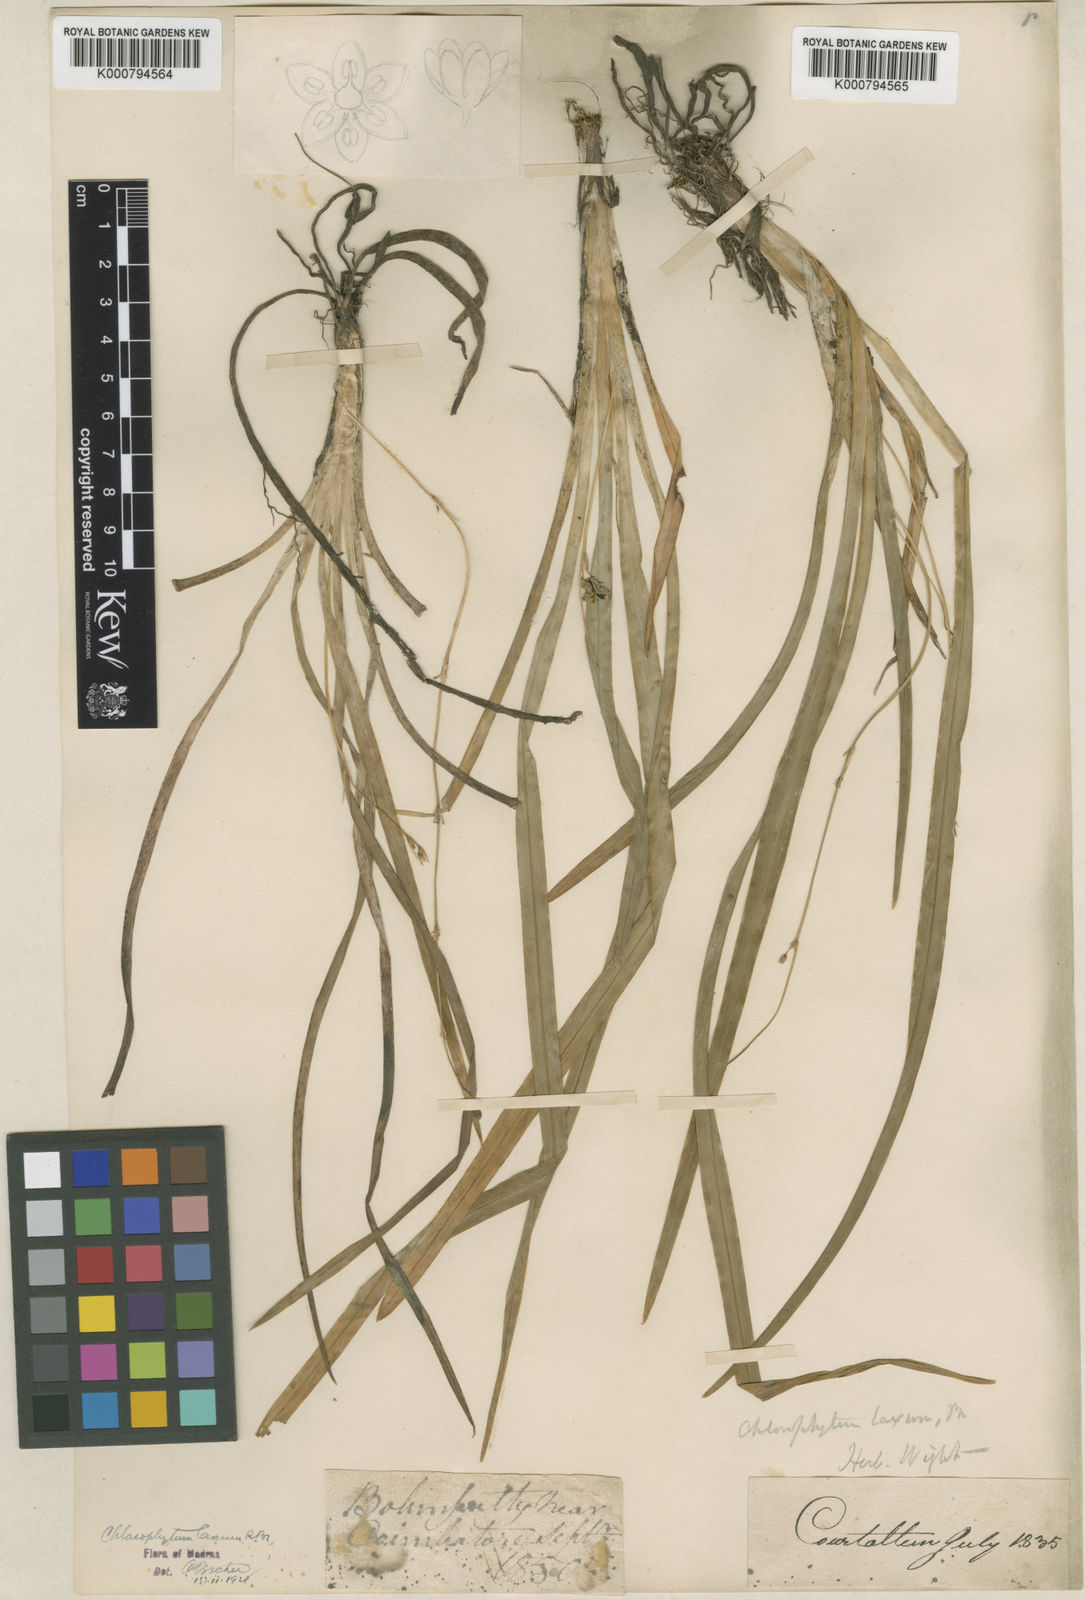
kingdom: Plantae
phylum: Tracheophyta
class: Liliopsida
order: Asparagales
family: Asparagaceae
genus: Chlorophytum
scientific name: Chlorophytum laxum
